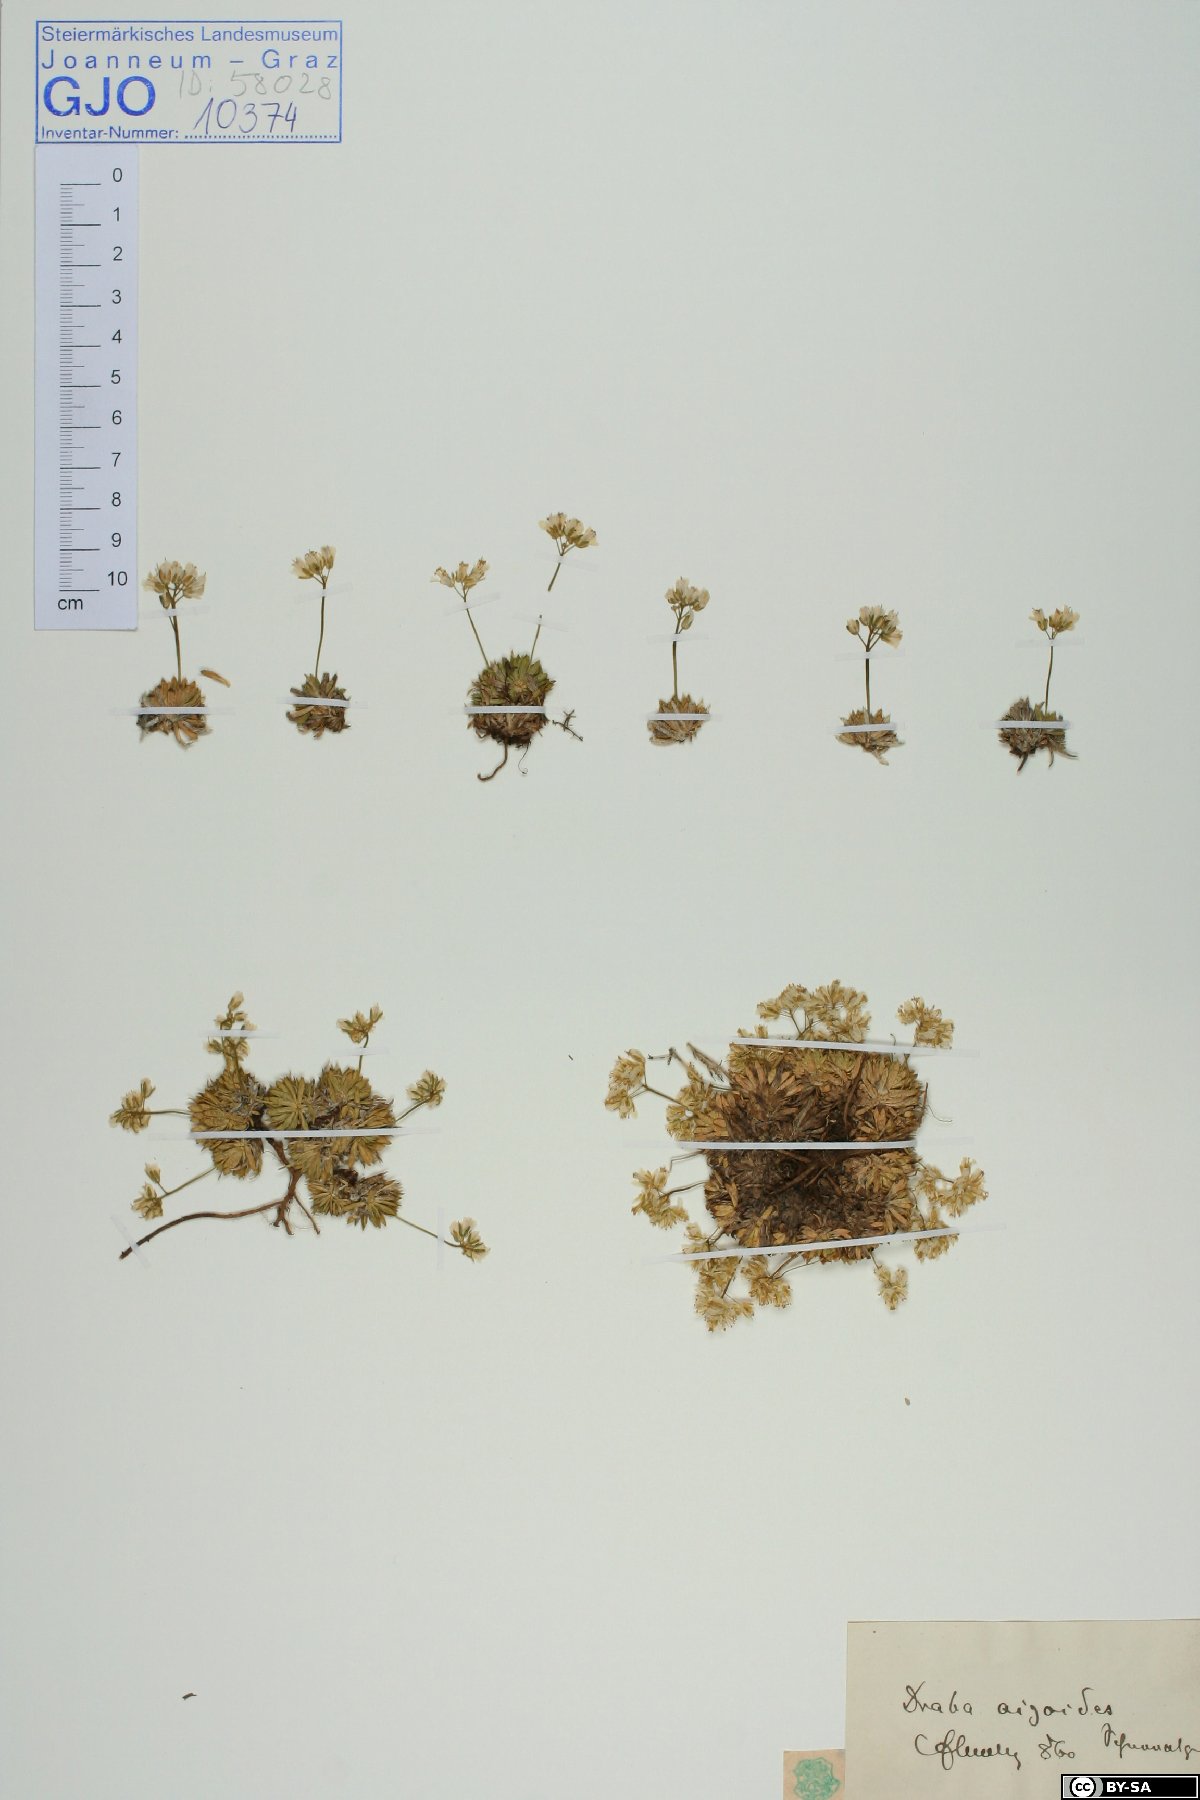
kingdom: Plantae
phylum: Tracheophyta
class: Magnoliopsida
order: Brassicales
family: Brassicaceae
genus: Draba
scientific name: Draba aizoides
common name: Yellow whitlowgrass
